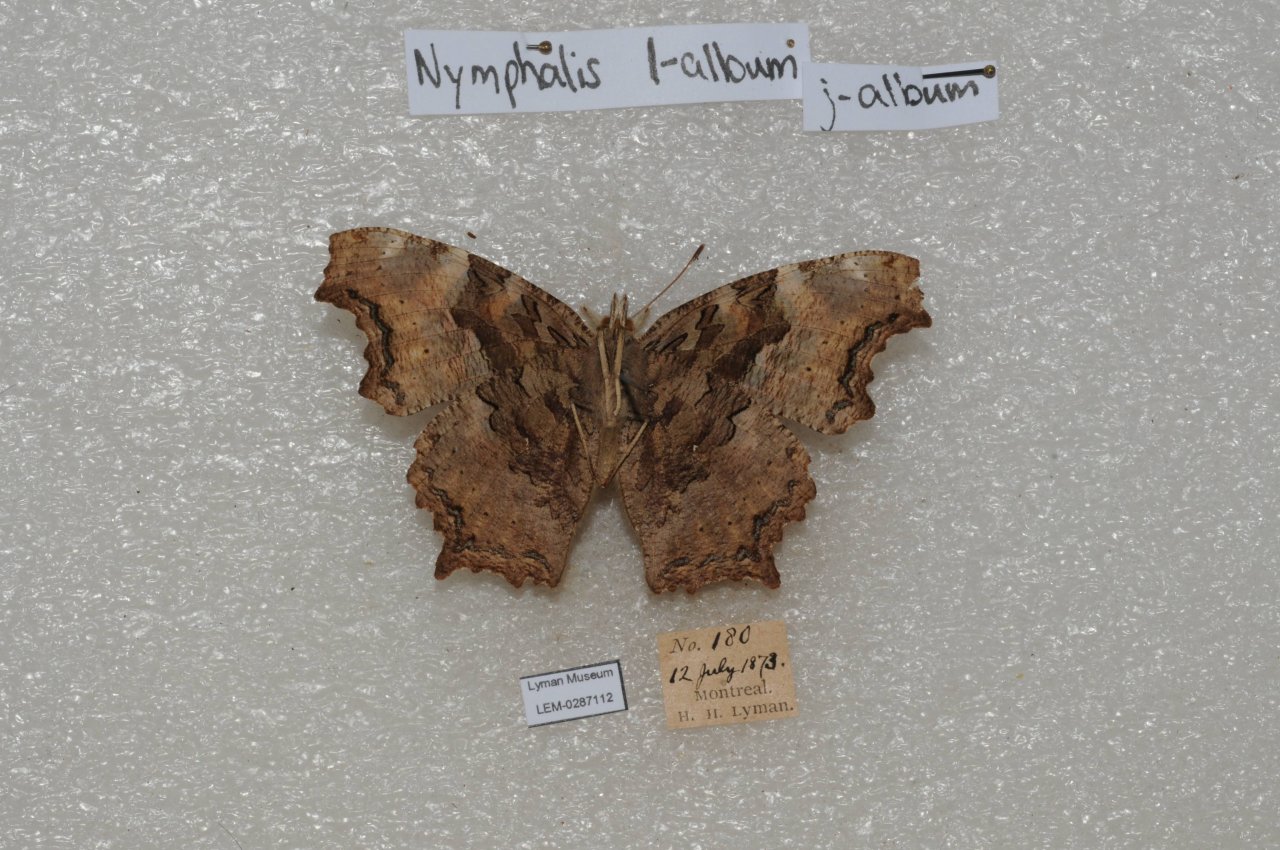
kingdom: Animalia
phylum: Arthropoda
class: Insecta
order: Lepidoptera
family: Nymphalidae
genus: Polygonia
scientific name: Polygonia vaualbum
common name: Compton Tortoiseshell
